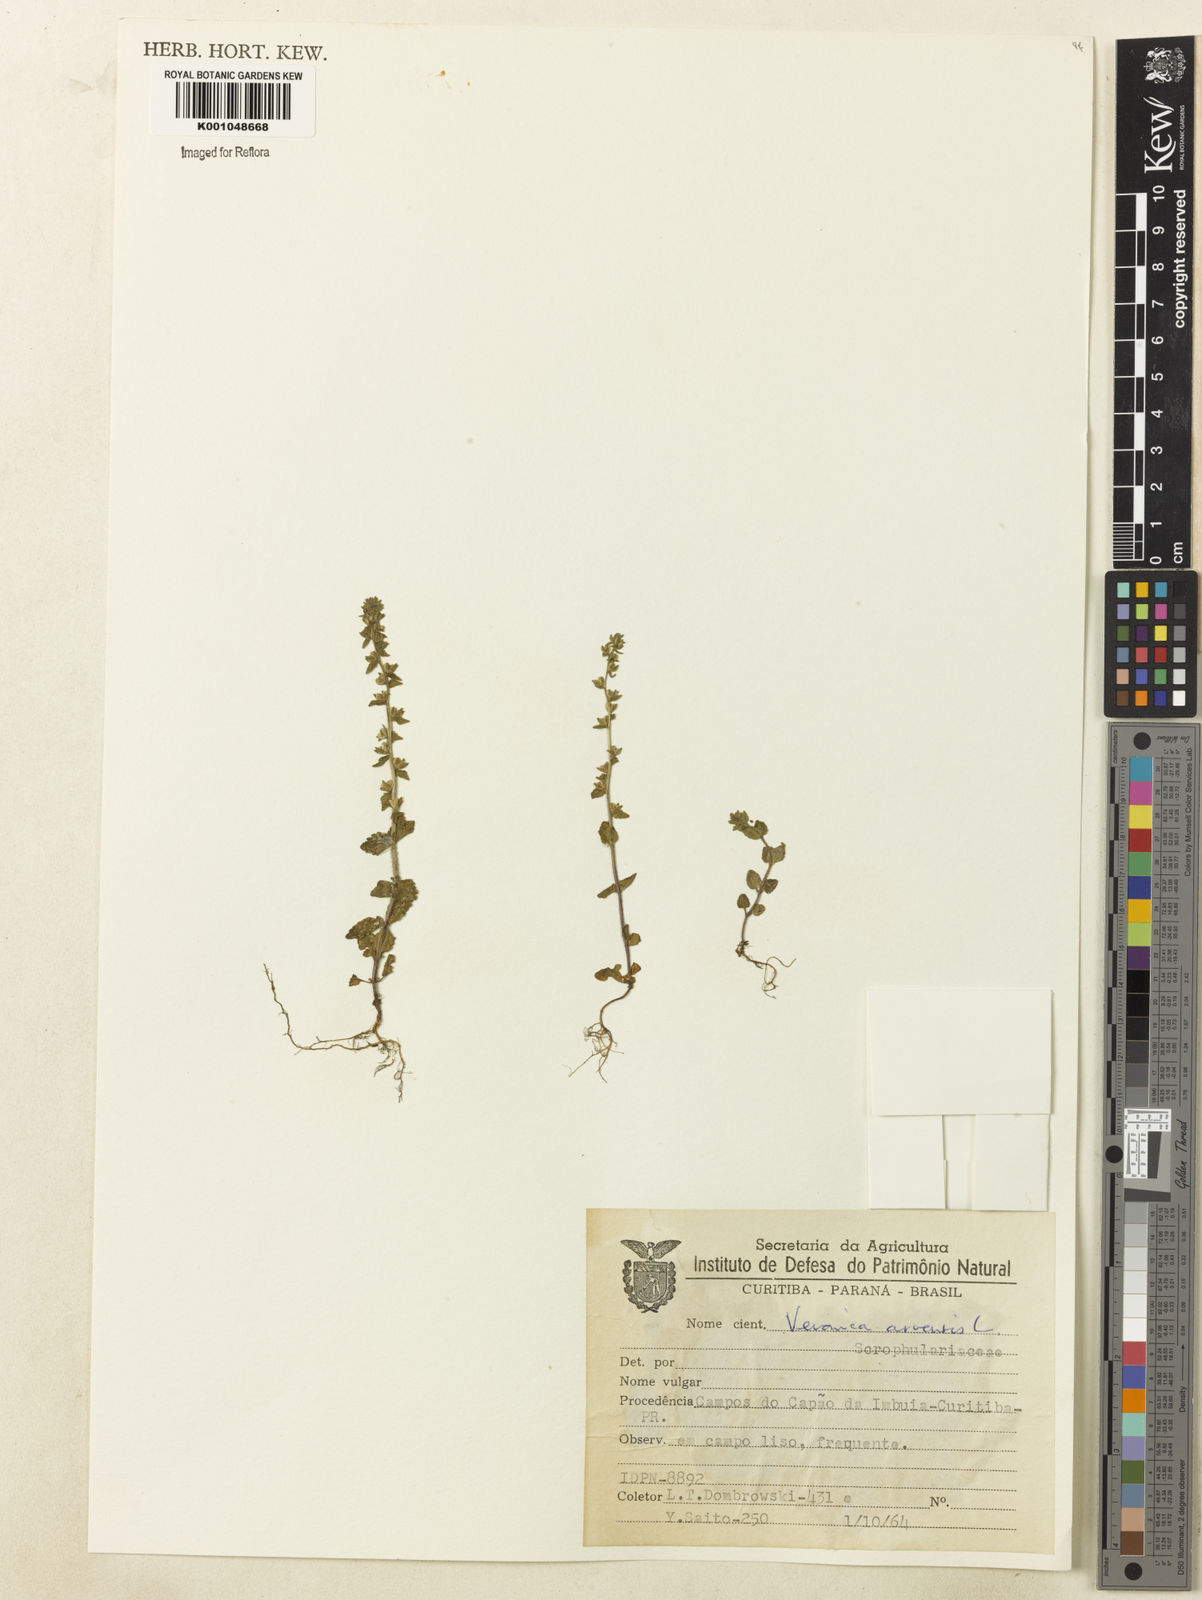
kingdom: Plantae
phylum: Tracheophyta
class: Magnoliopsida
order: Lamiales
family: Plantaginaceae
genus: Veronica
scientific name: Veronica arvensis
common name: Corn speedwell
